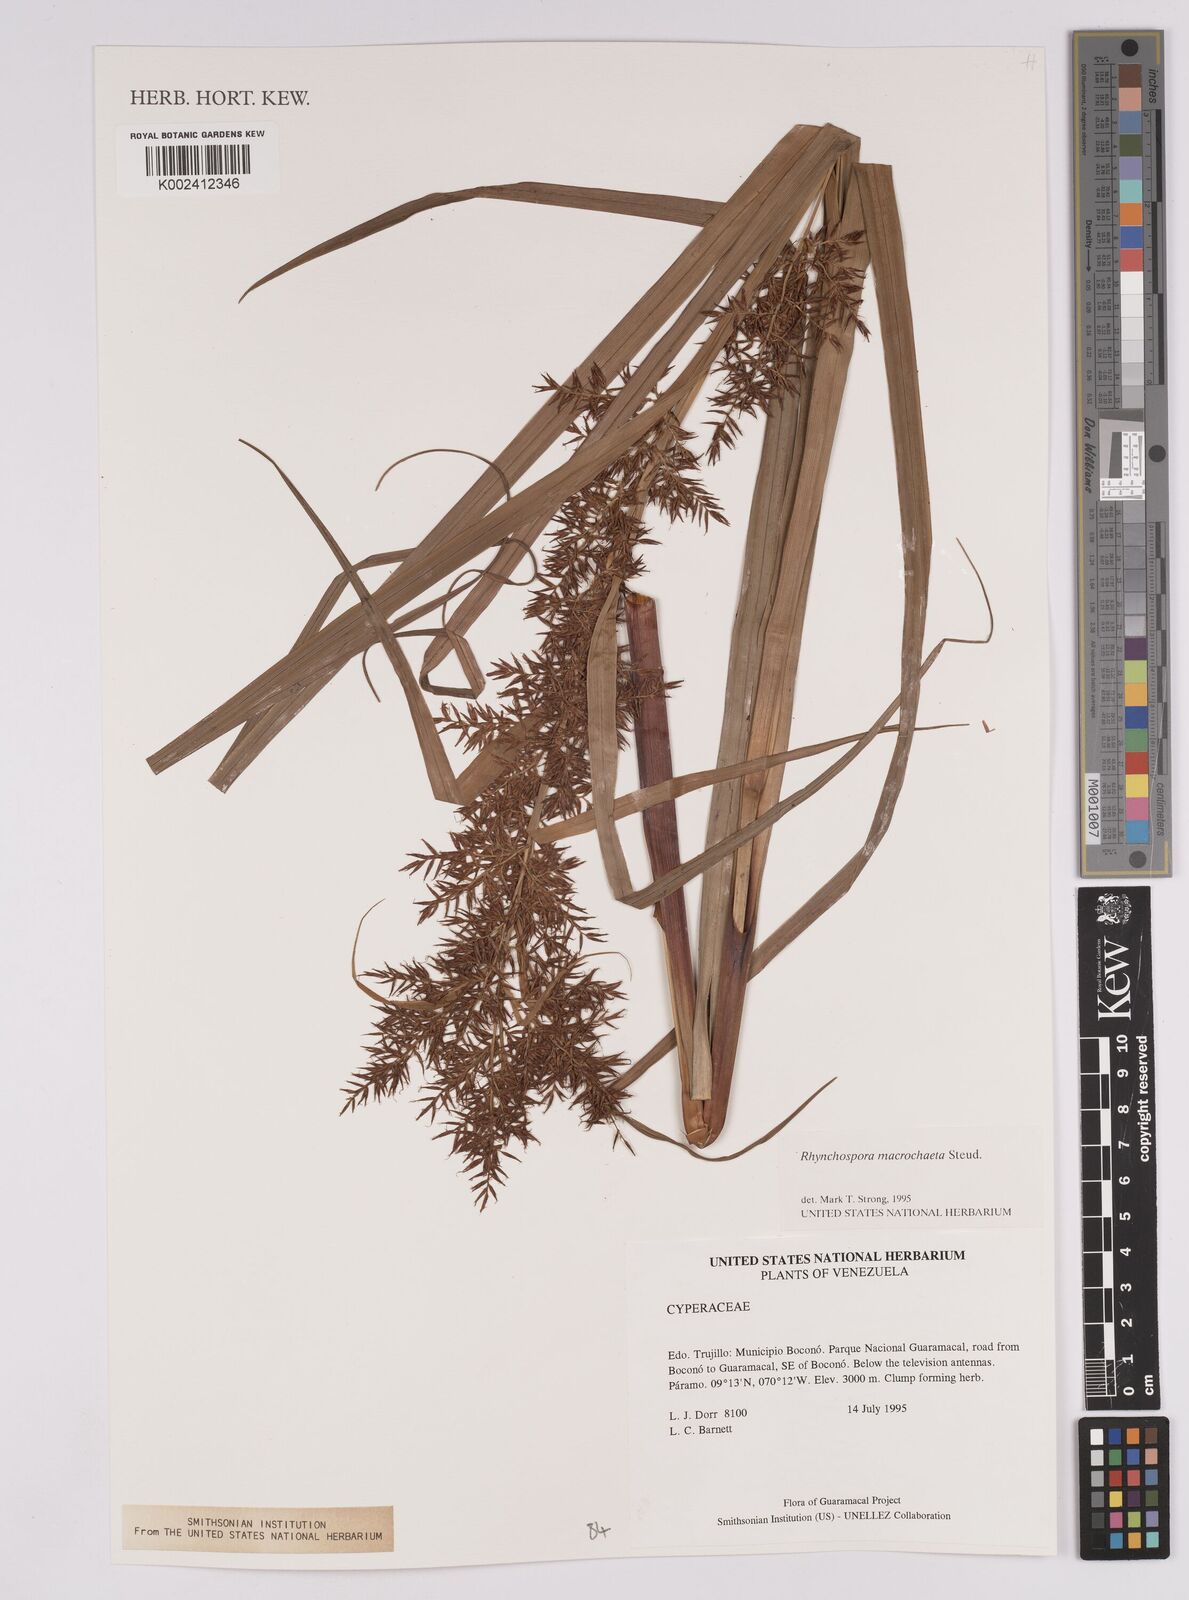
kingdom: Plantae
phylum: Tracheophyta
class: Liliopsida
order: Poales
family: Cyperaceae
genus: Rhynchospora
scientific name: Rhynchospora macrochaeta
